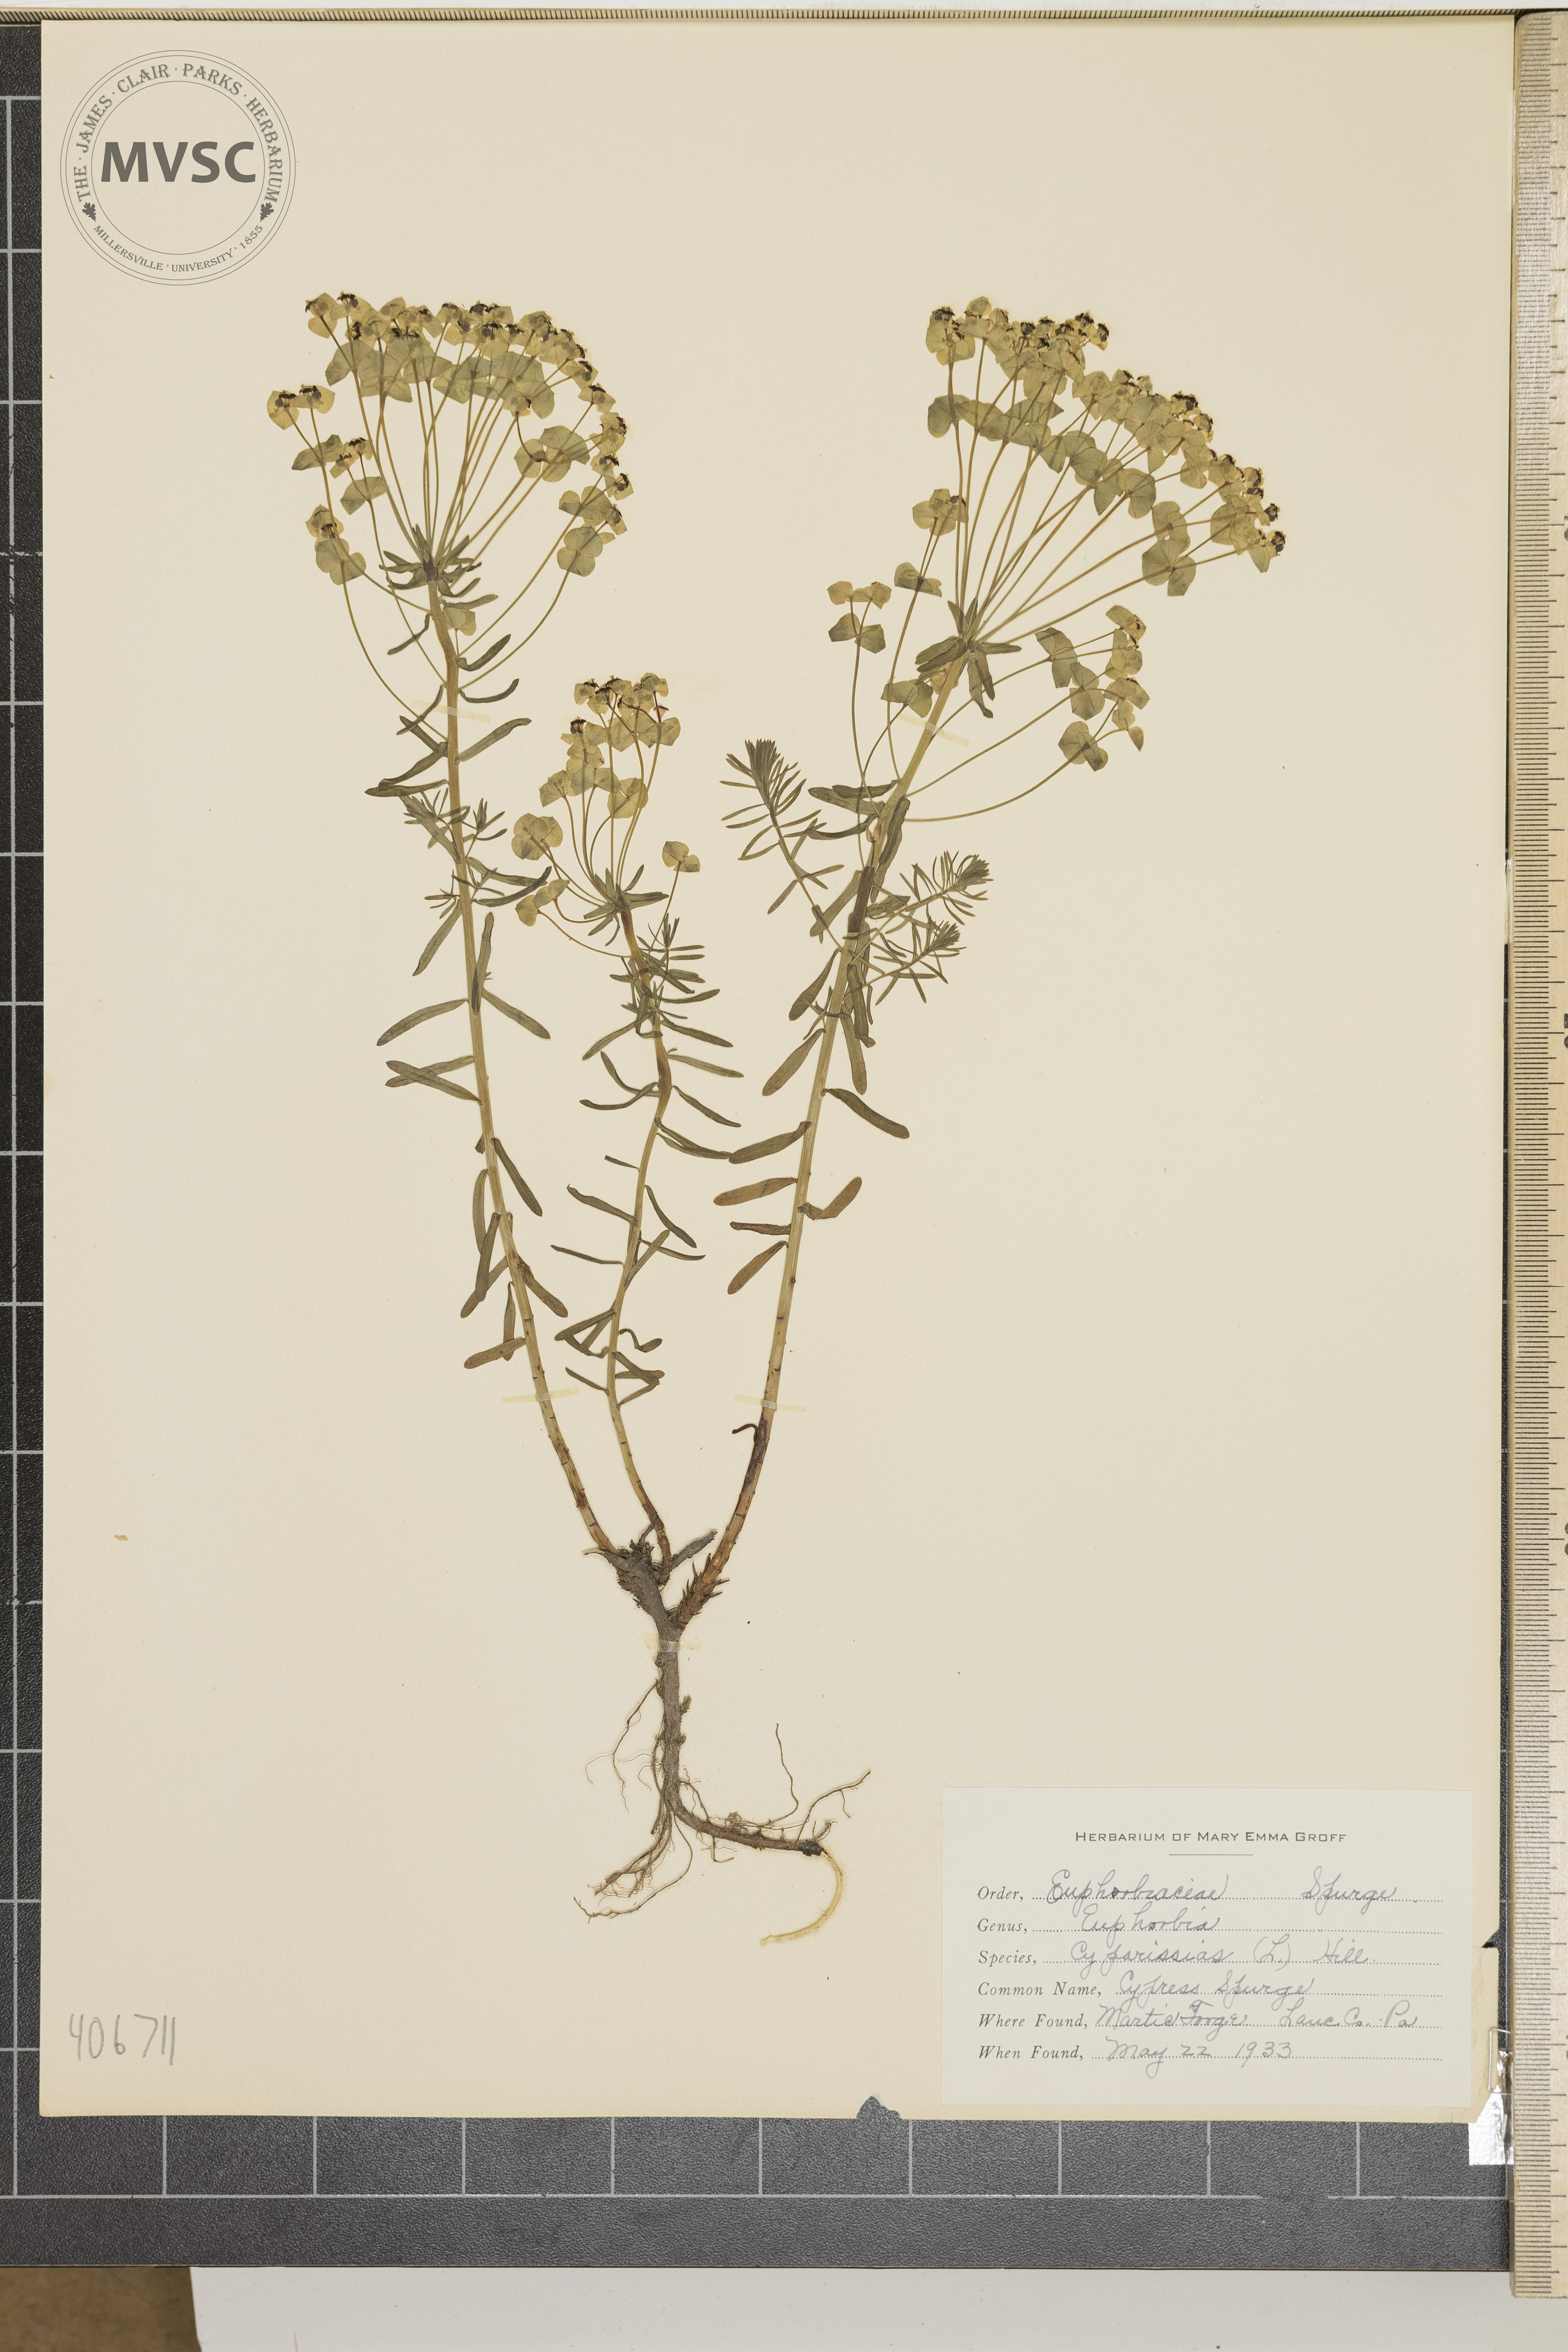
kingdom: Plantae
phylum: Tracheophyta
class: Magnoliopsida
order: Malpighiales
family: Euphorbiaceae
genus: Euphorbia
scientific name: Euphorbia cyparissias
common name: Cypress Spurge
